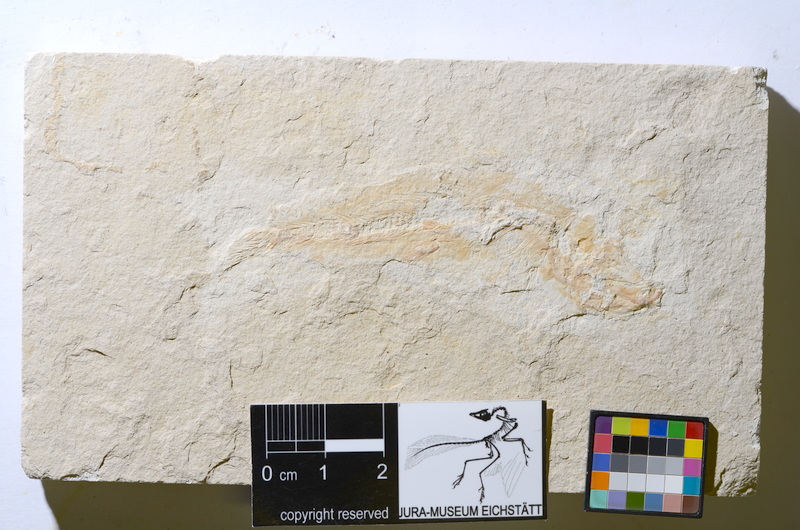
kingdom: Animalia
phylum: Chordata
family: Ascalaboidae
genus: Tharsis
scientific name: Tharsis
